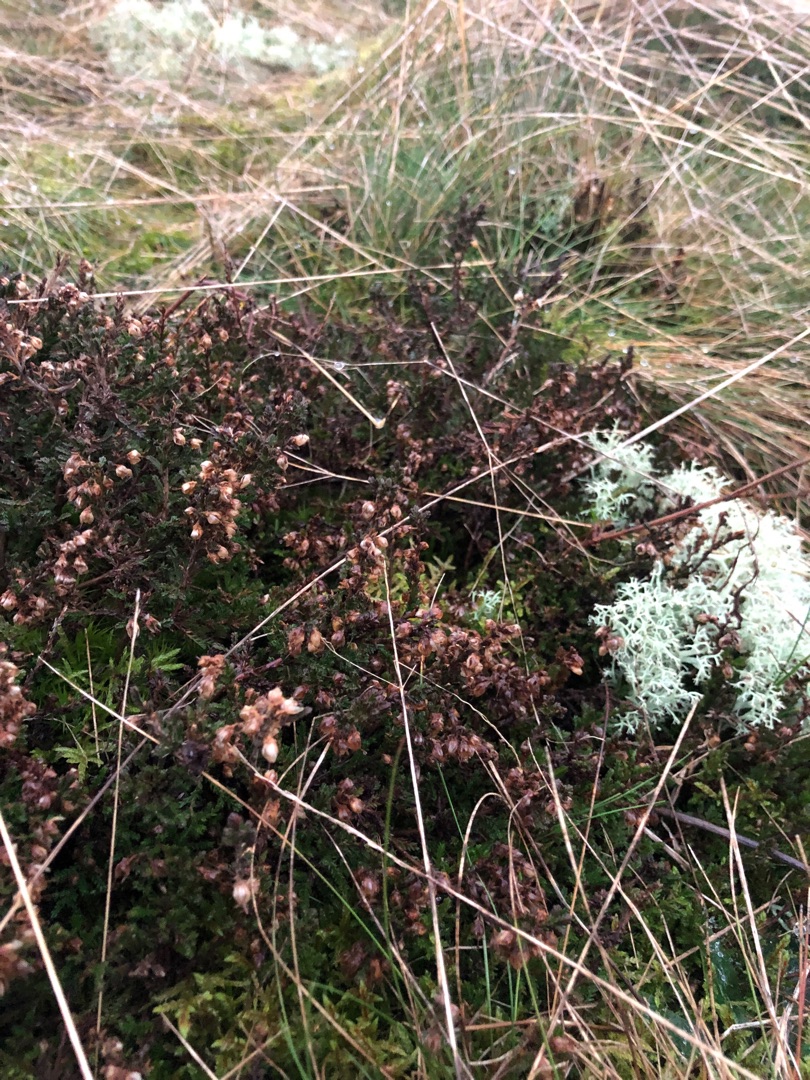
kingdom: Plantae
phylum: Tracheophyta
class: Magnoliopsida
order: Ericales
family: Ericaceae
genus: Calluna
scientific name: Calluna vulgaris
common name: Hedelyng
